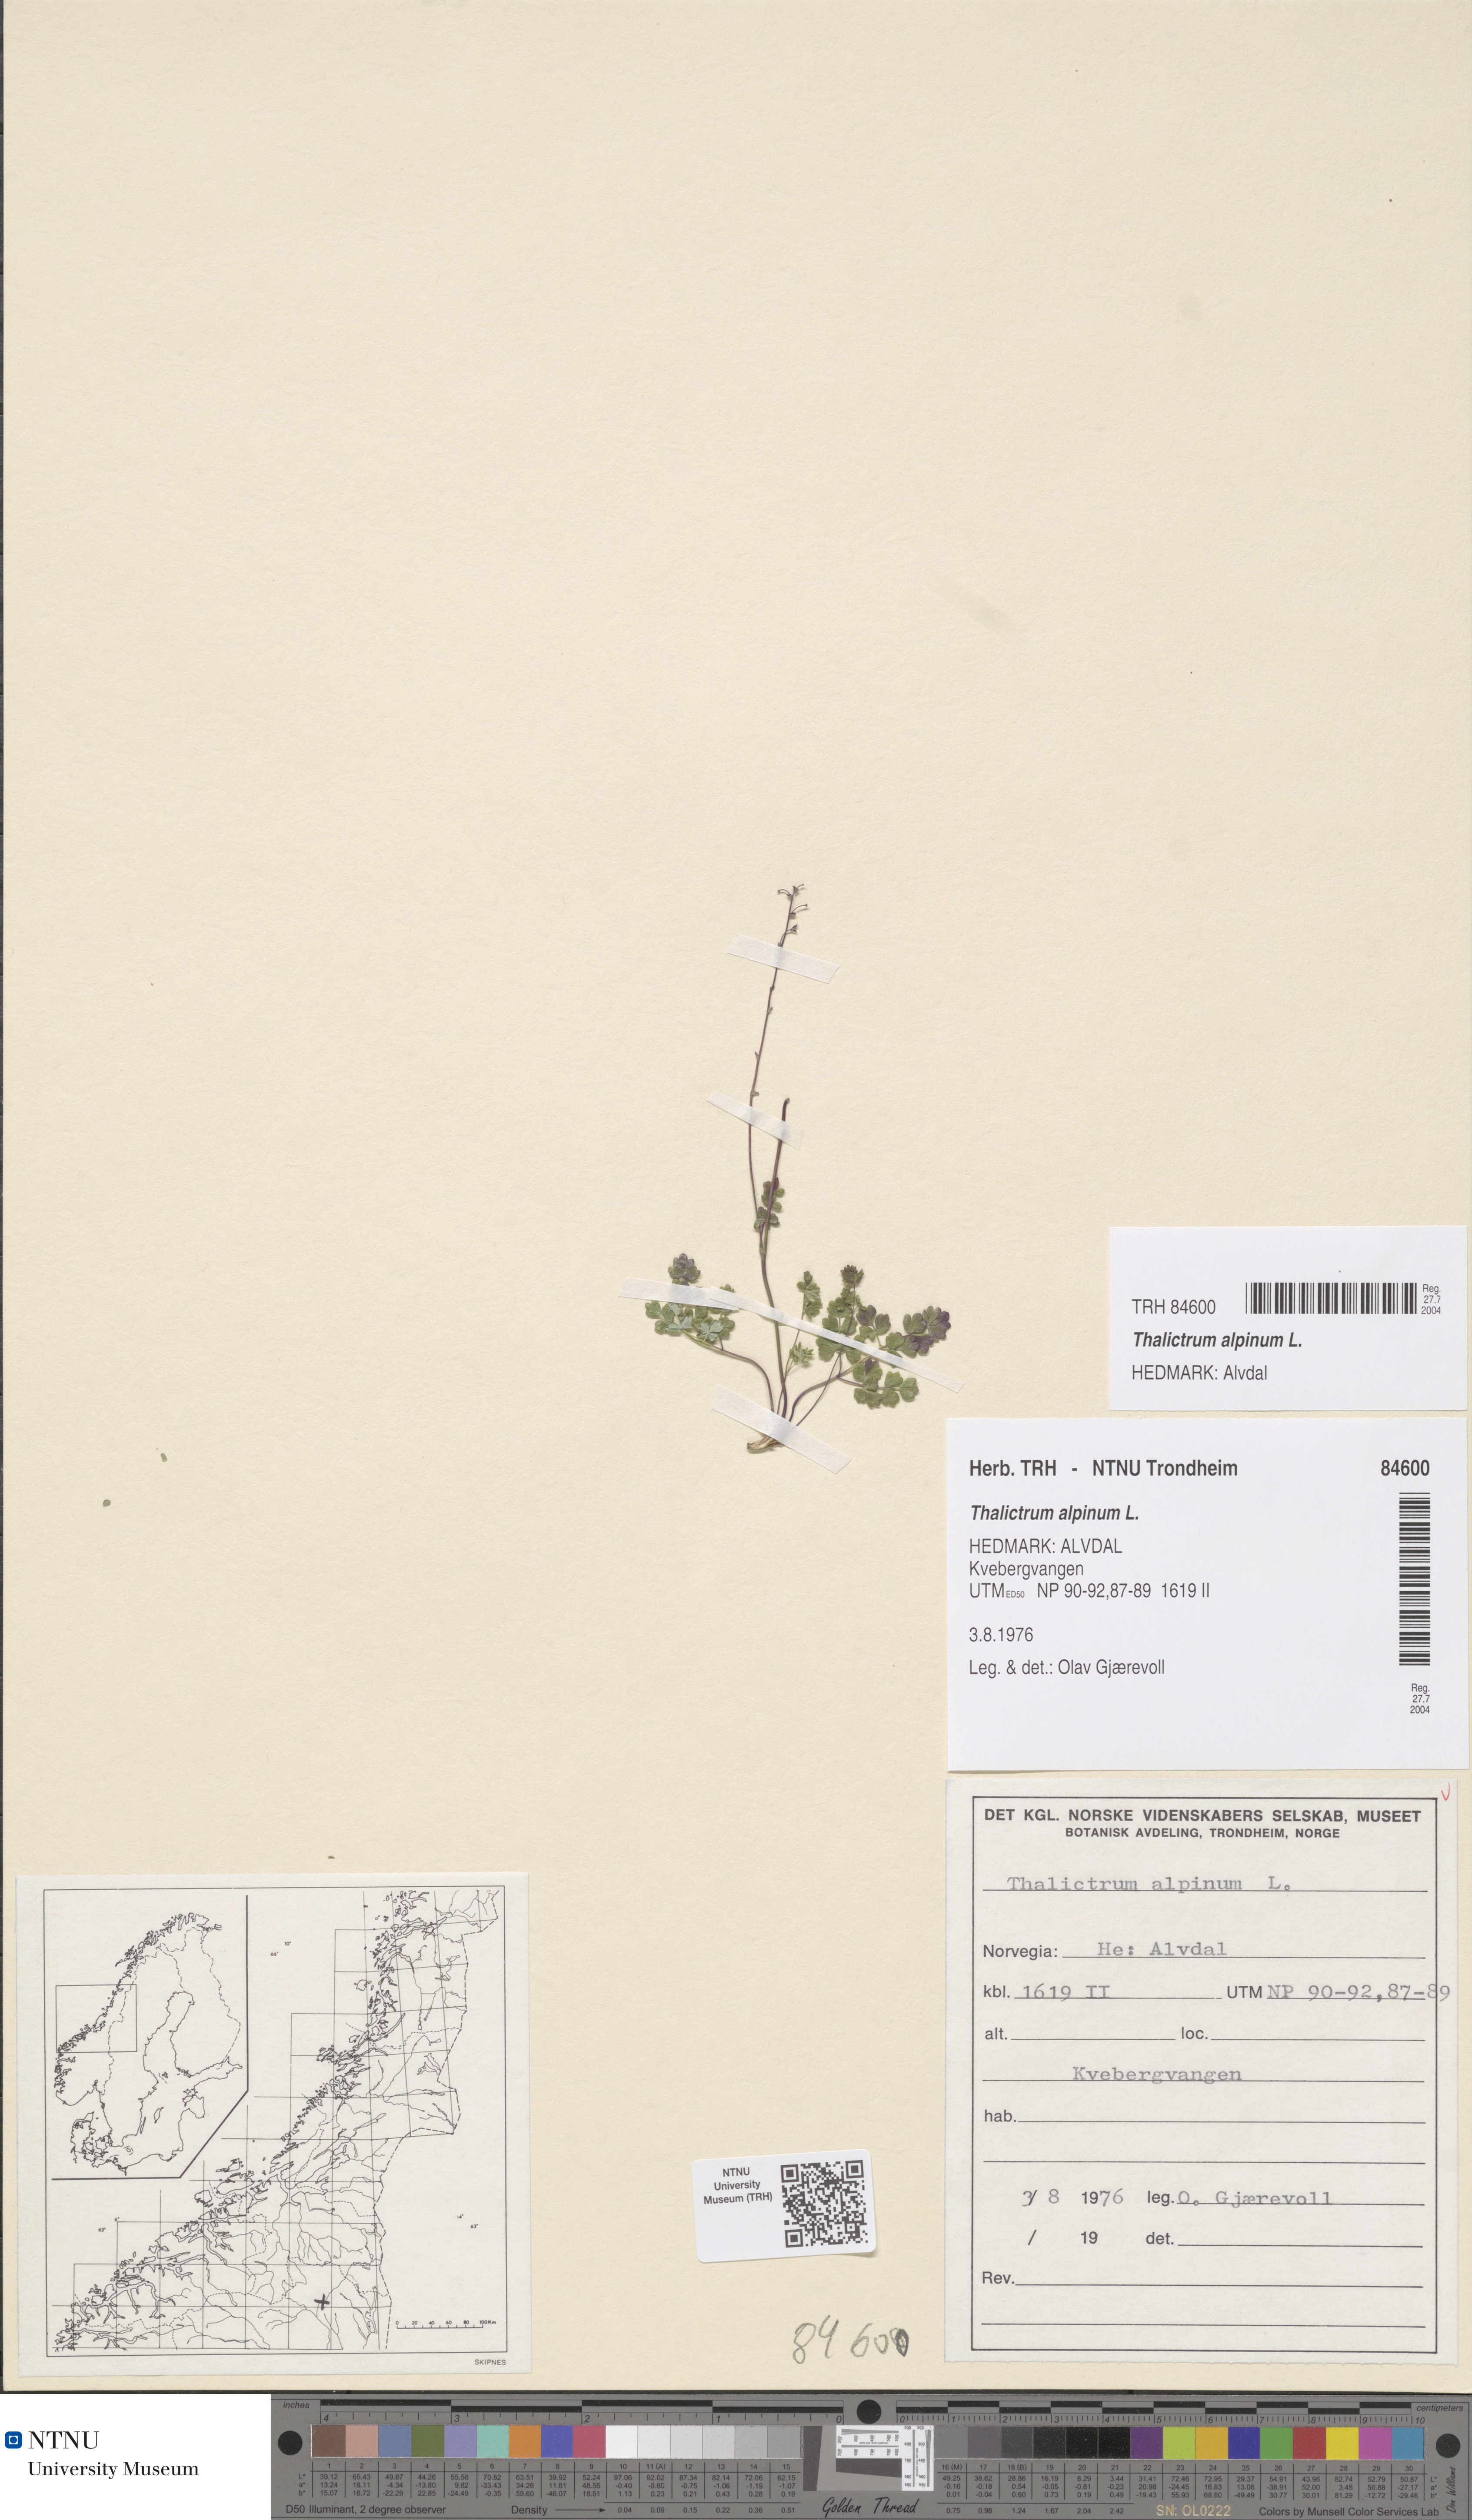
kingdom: Plantae
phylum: Tracheophyta
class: Magnoliopsida
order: Ranunculales
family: Ranunculaceae
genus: Thalictrum
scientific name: Thalictrum alpinum
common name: Alpine meadow-rue
